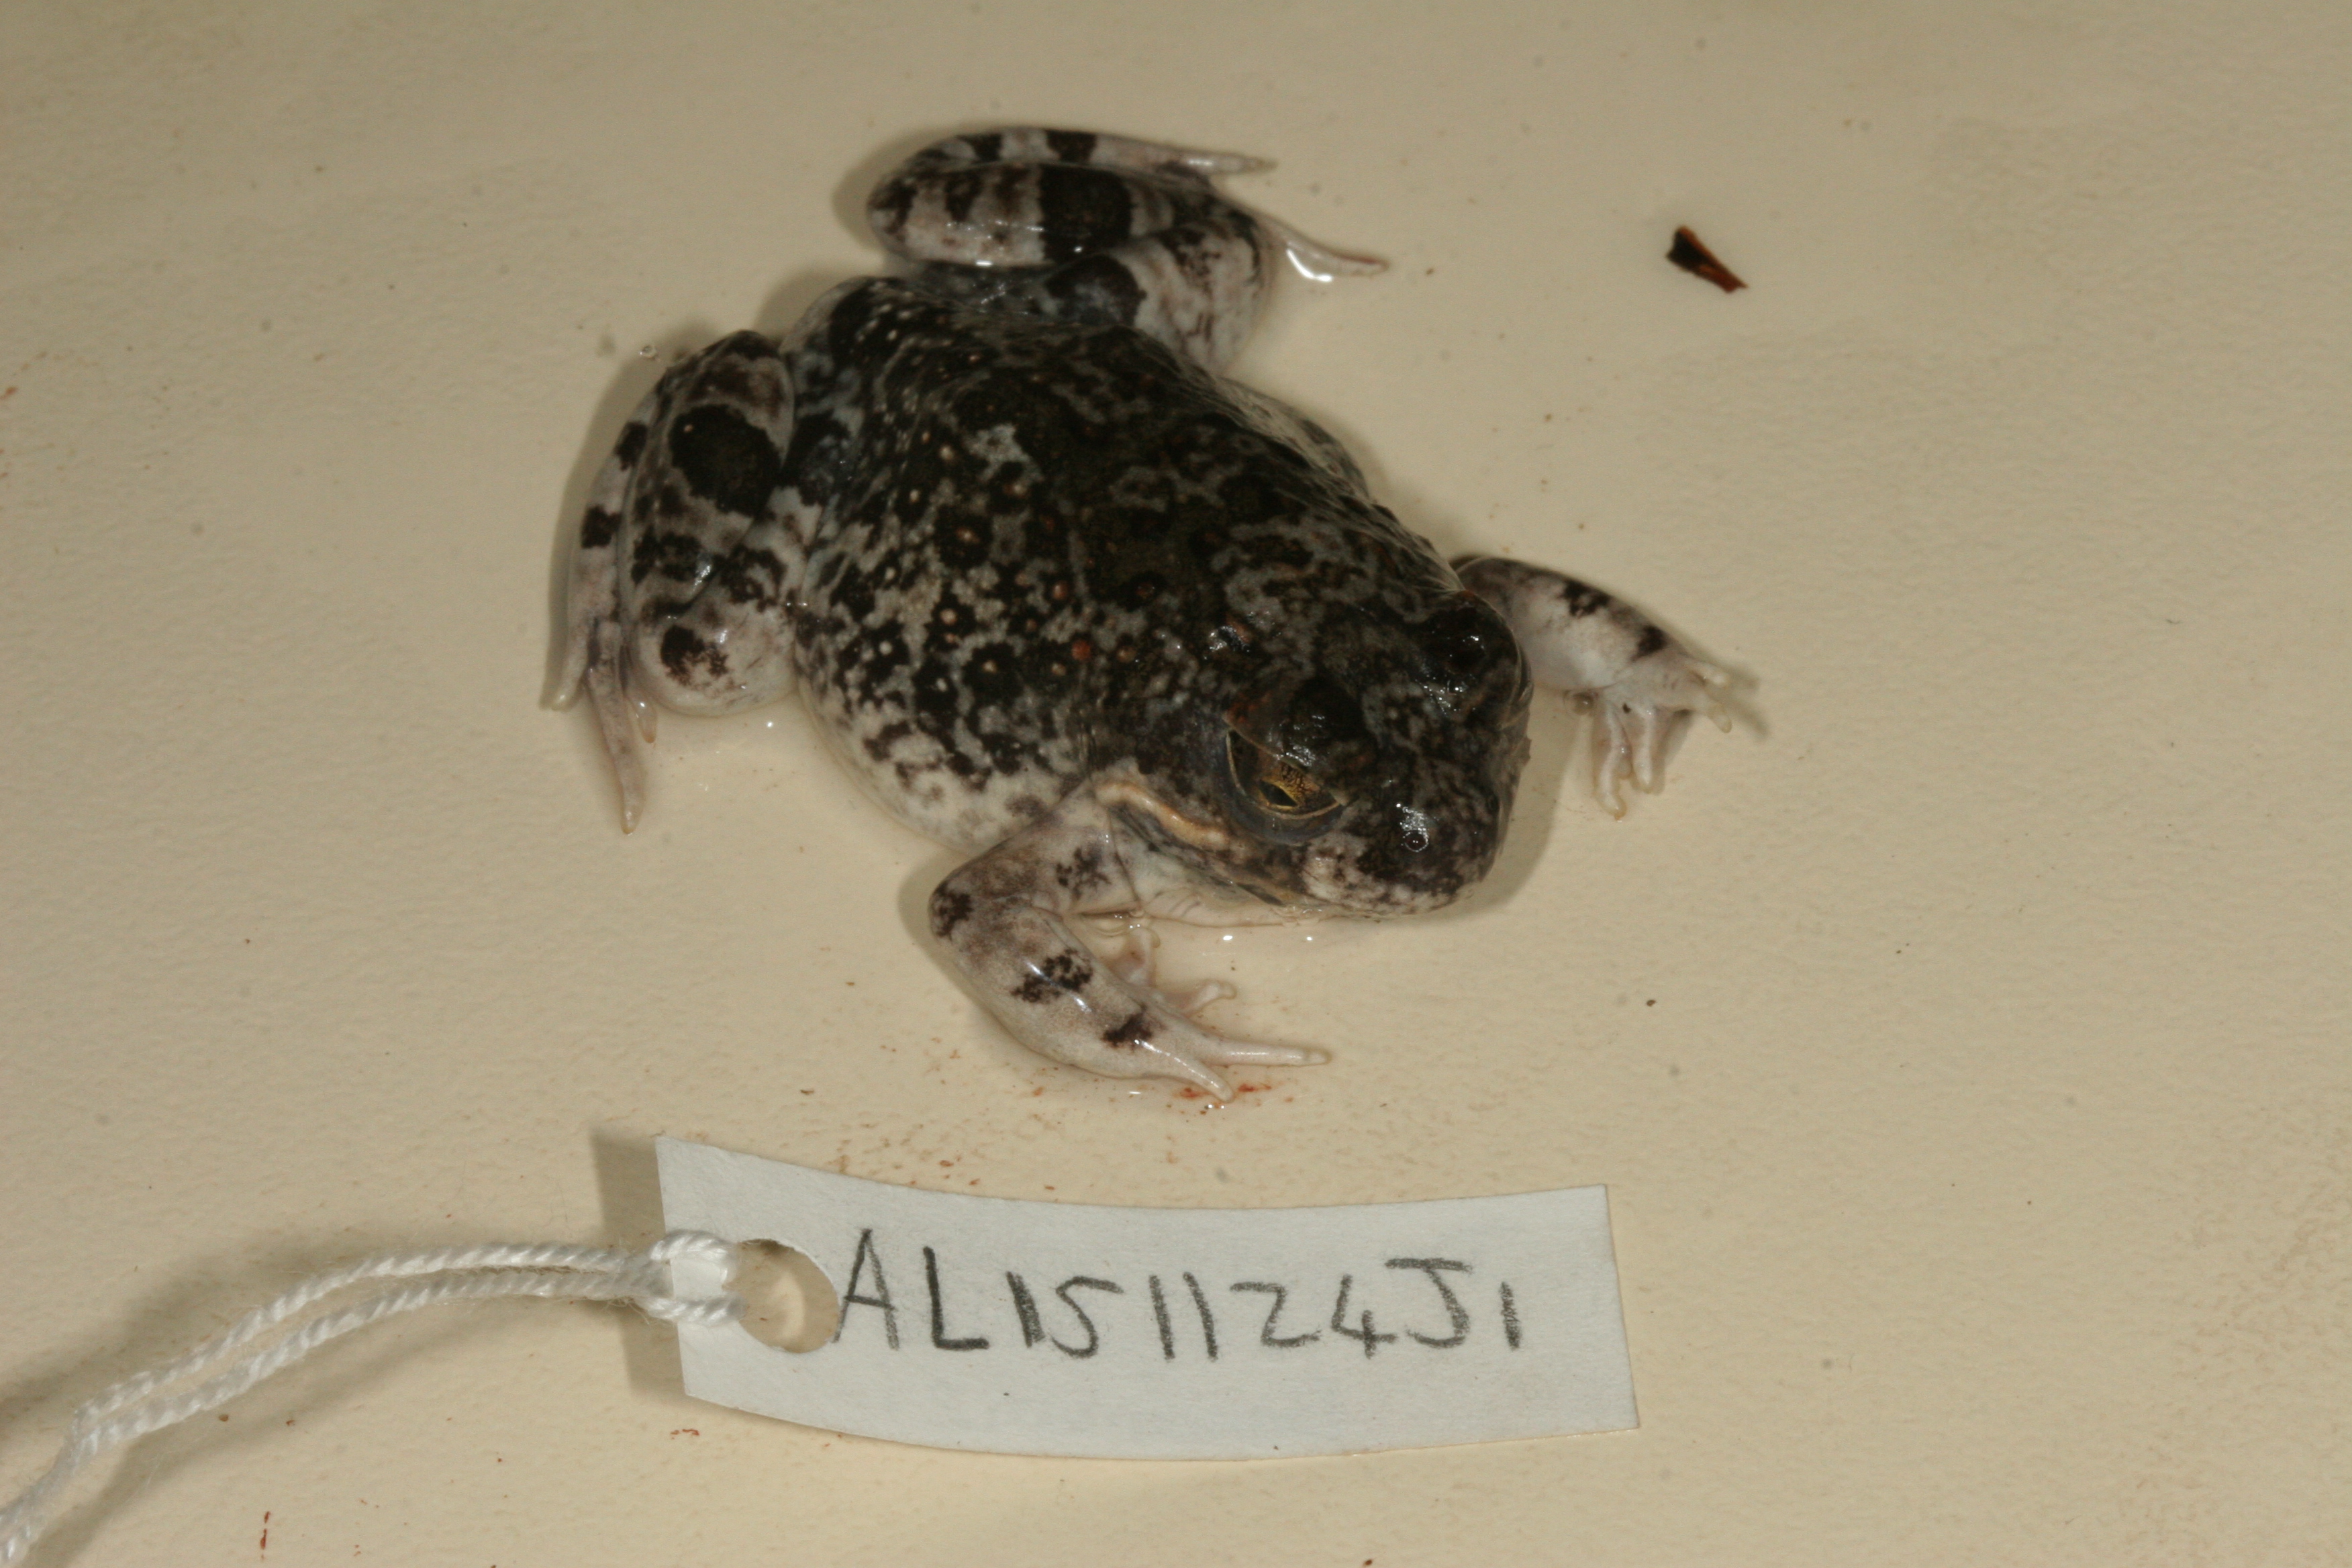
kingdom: Animalia
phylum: Chordata
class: Amphibia
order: Anura
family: Pyxicephalidae
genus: Tomopterna
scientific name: Tomopterna krugerensis
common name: Knocking sand frog
